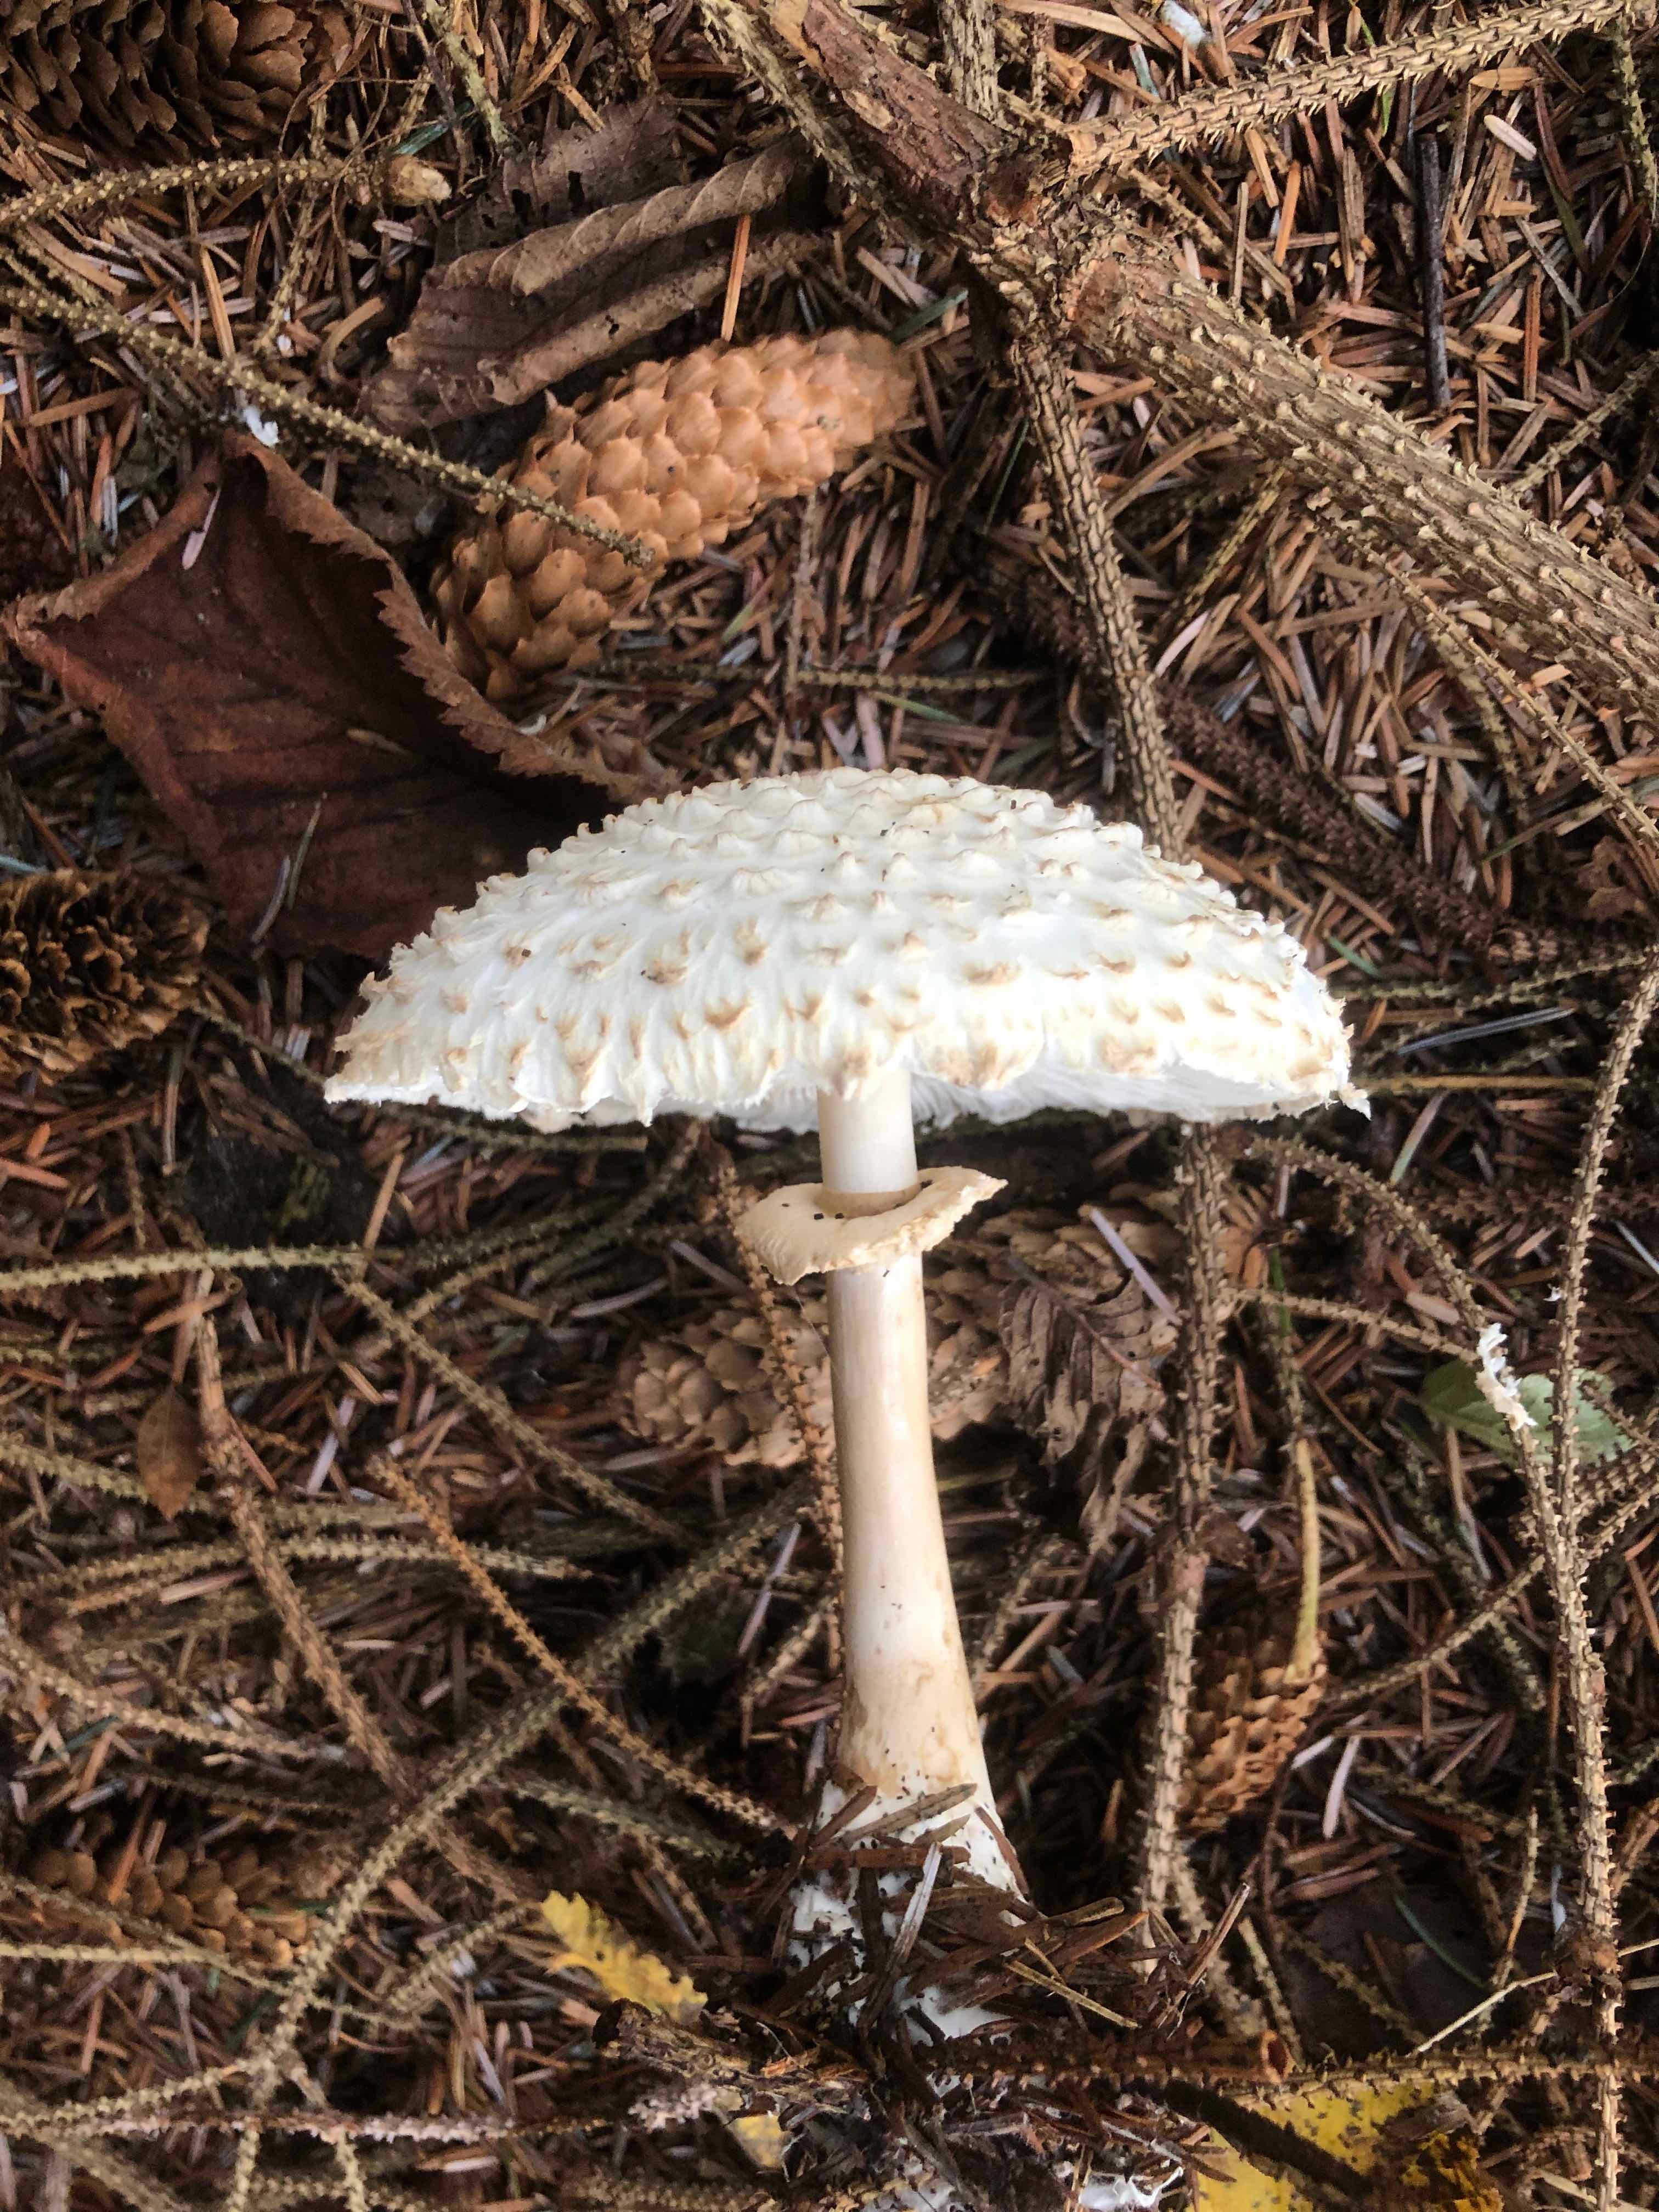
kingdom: Fungi
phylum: Basidiomycota
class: Agaricomycetes
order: Agaricales
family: Agaricaceae
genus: Leucoagaricus
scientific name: Leucoagaricus nympharum
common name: gran-silkehat
